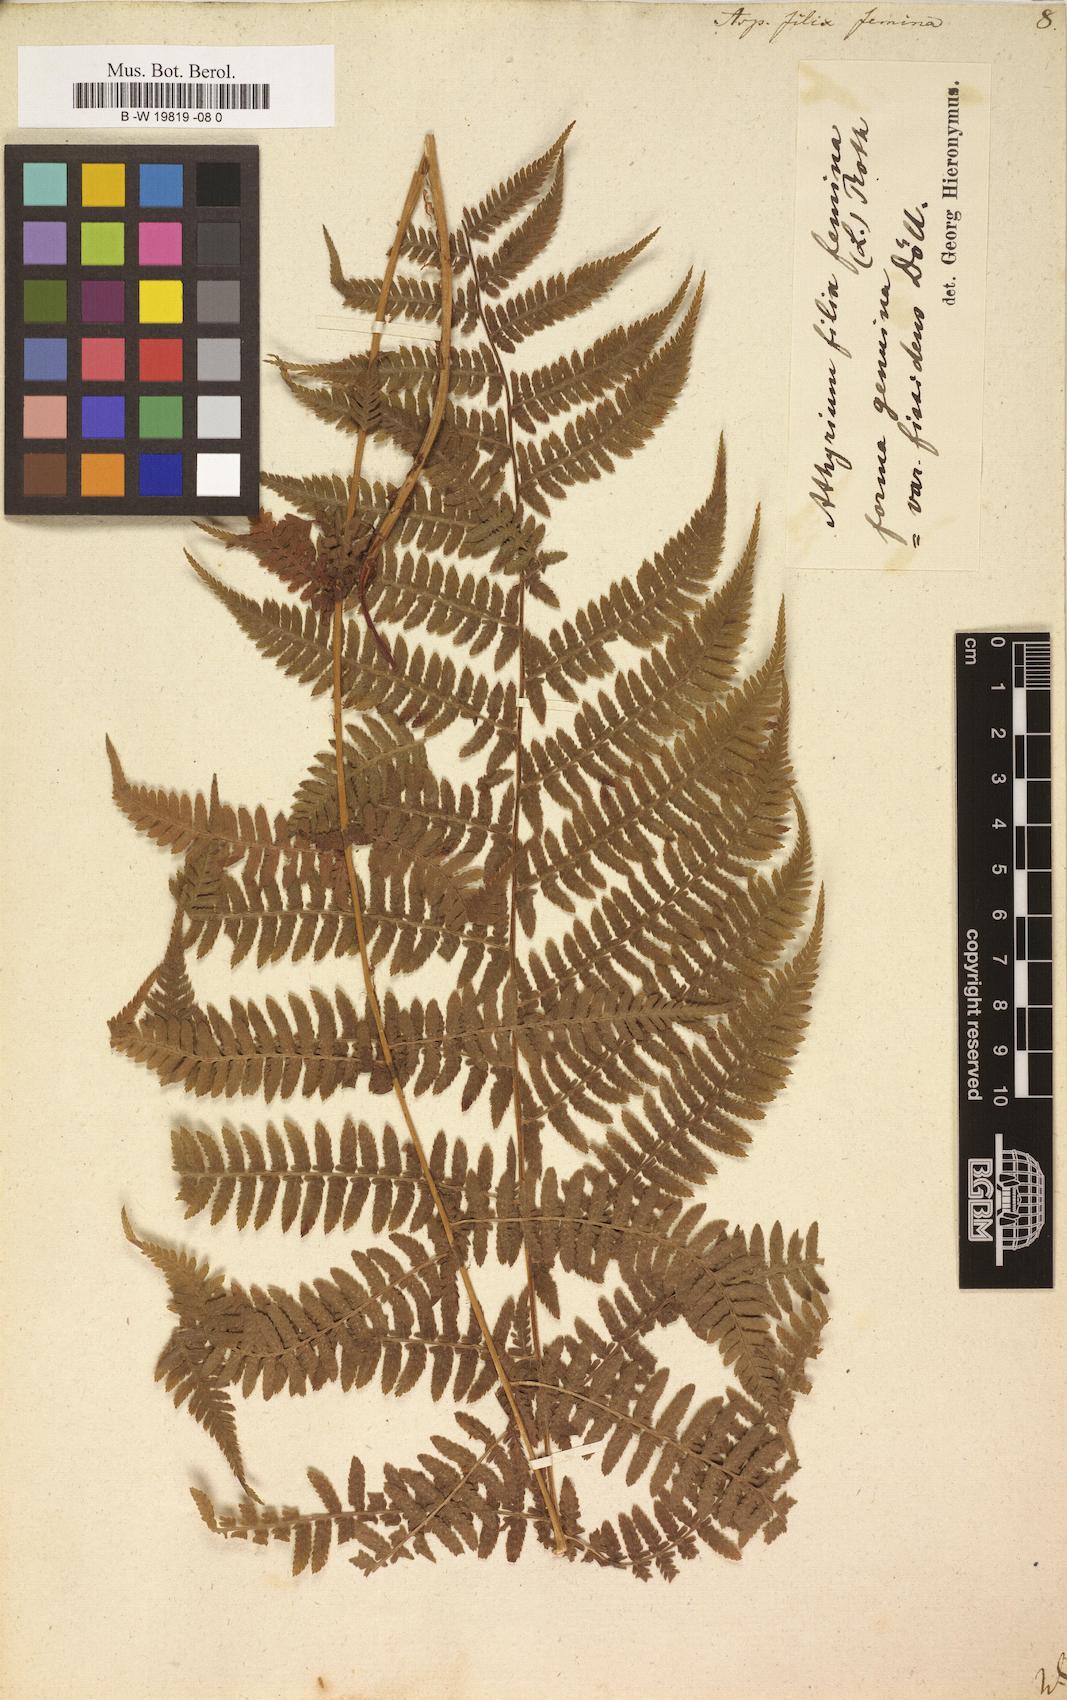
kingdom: Plantae
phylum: Tracheophyta
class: Polypodiopsida
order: Polypodiales
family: Athyriaceae
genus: Athyrium
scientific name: Athyrium filix-femina
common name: Lady fern
